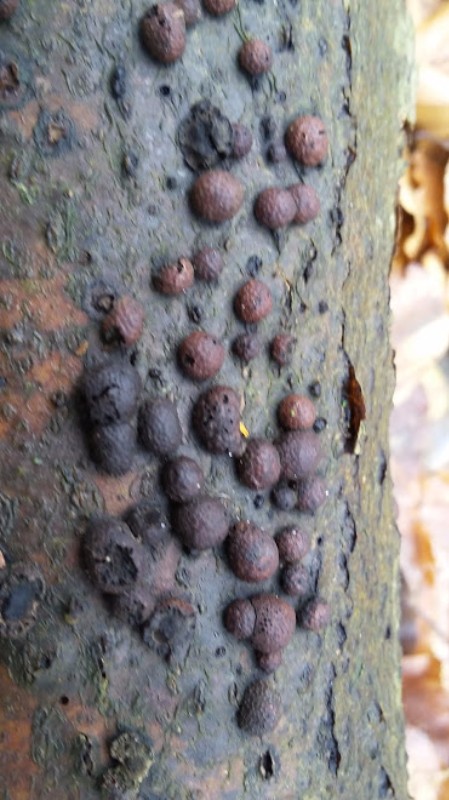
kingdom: Fungi
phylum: Ascomycota
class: Sordariomycetes
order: Xylariales
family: Hypoxylaceae
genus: Hypoxylon
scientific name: Hypoxylon fragiforme
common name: kuljordbær
